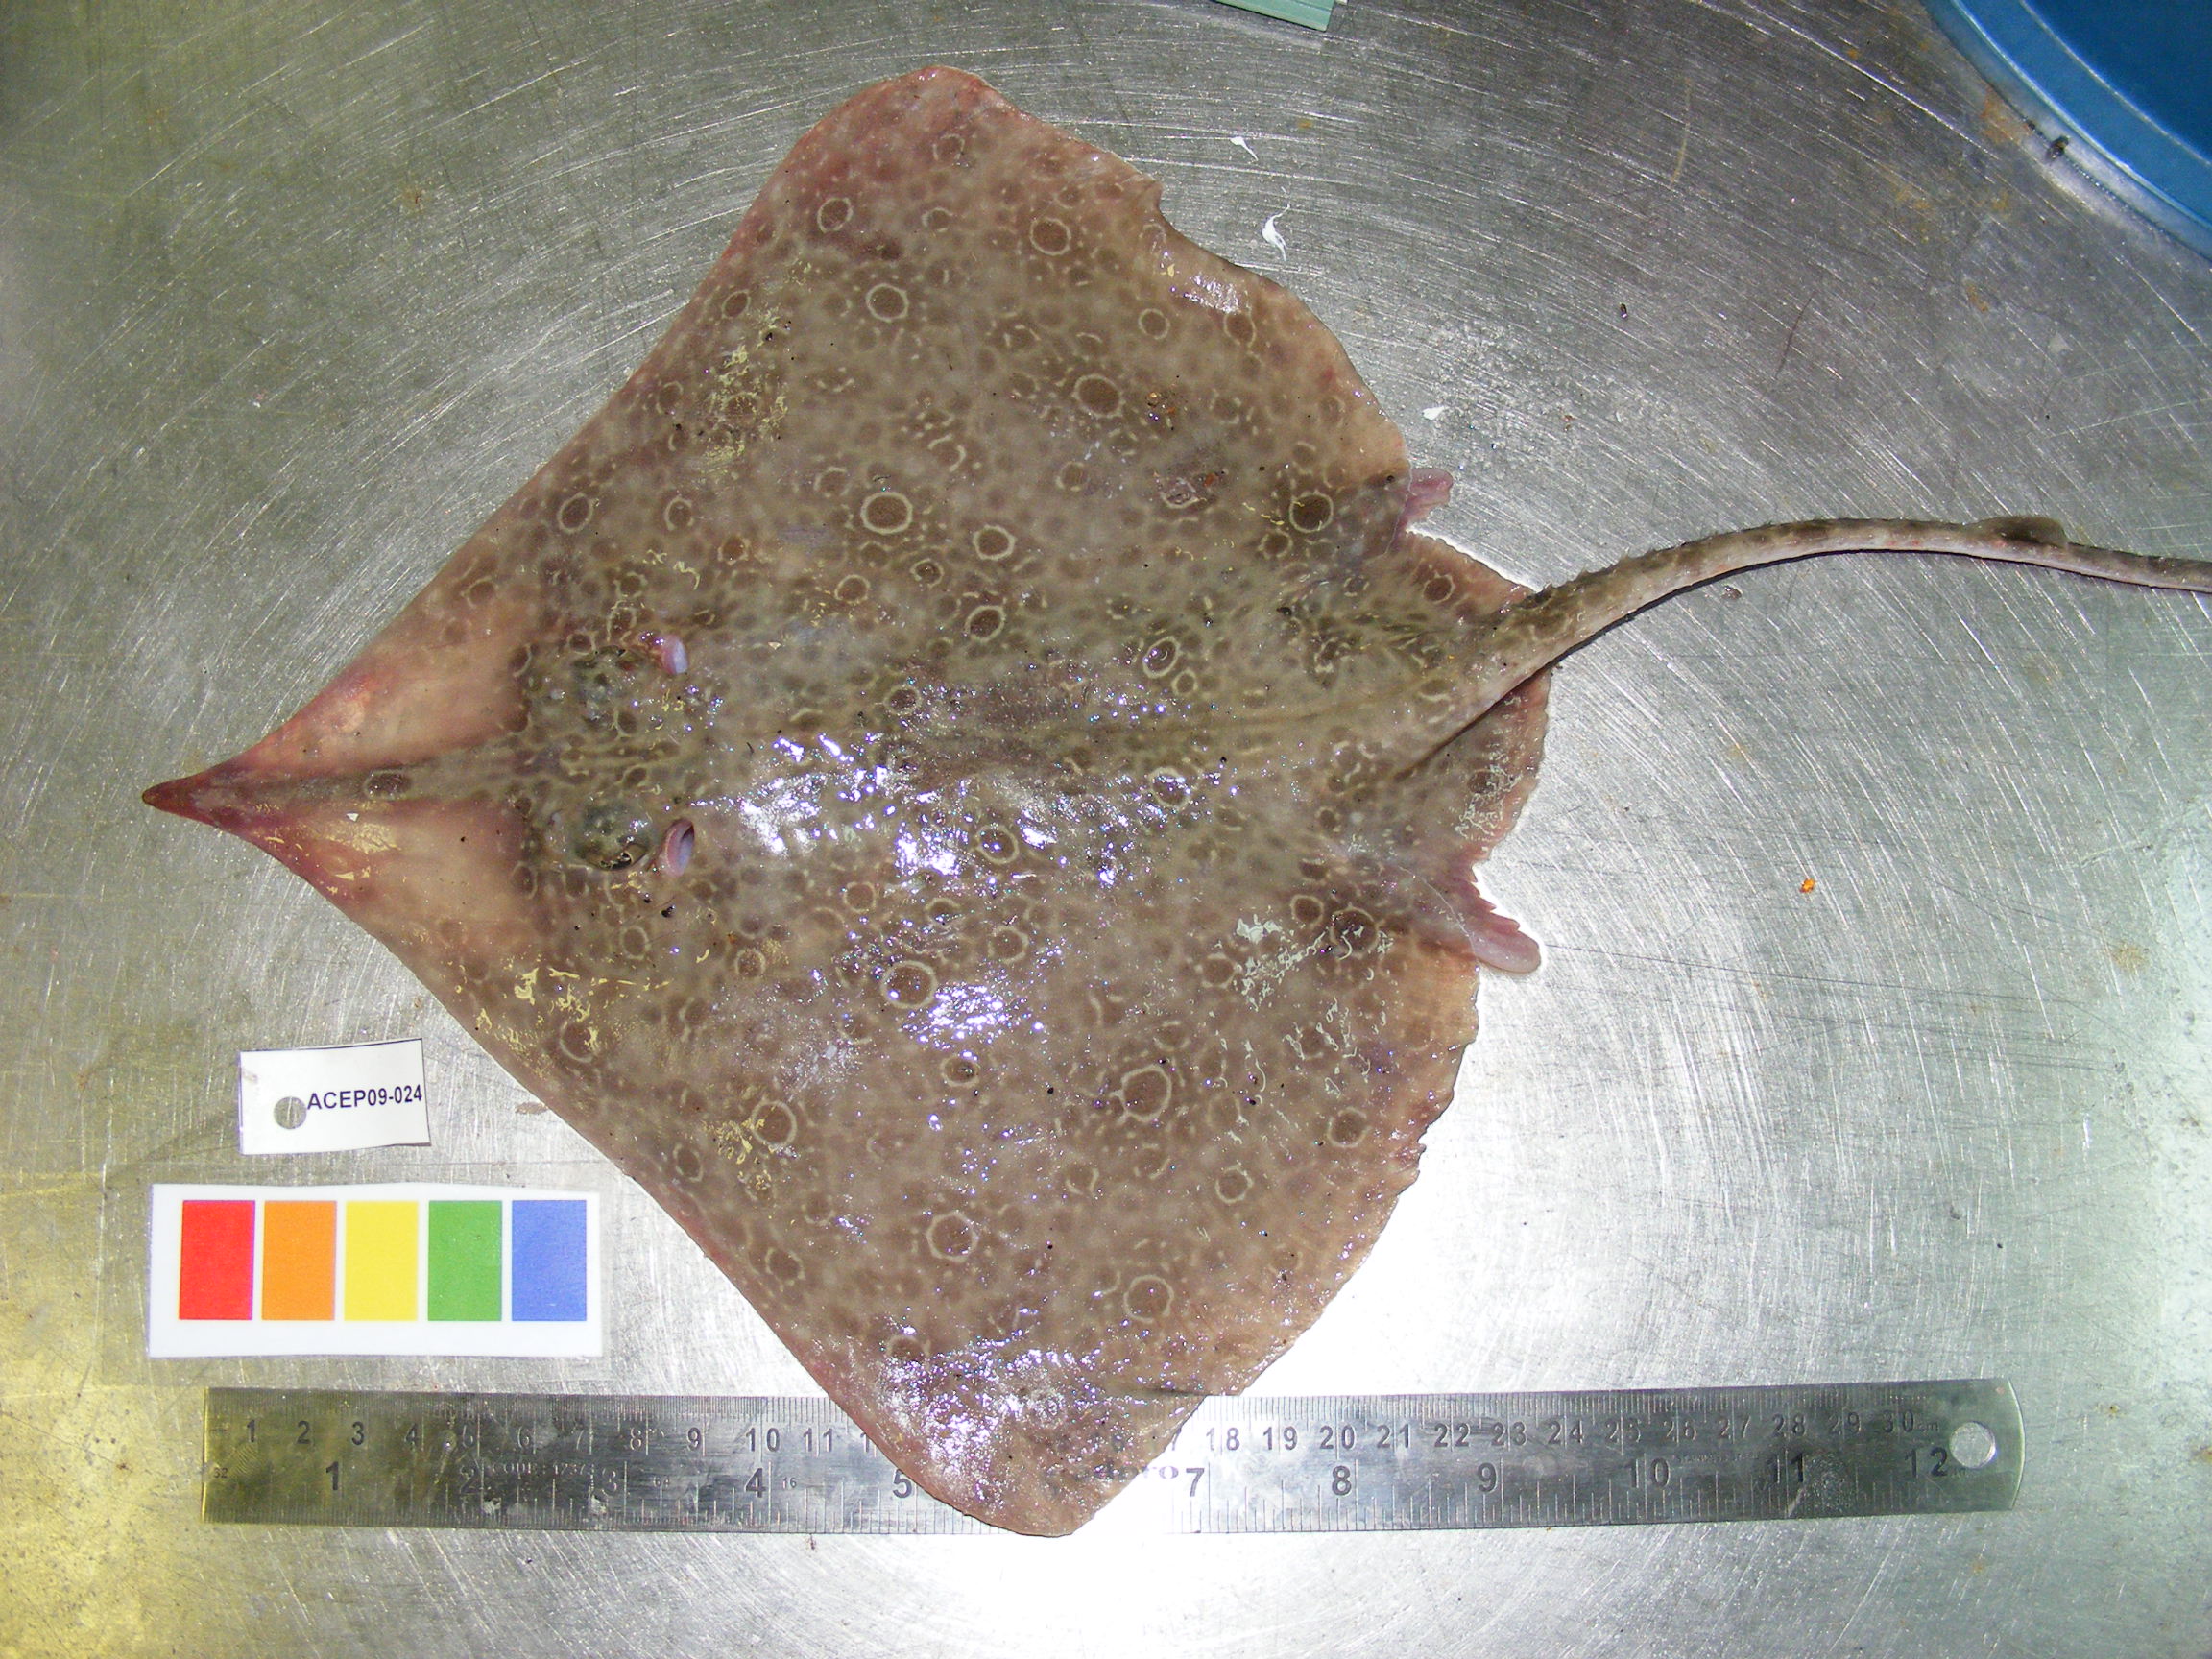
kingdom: Animalia
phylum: Chordata
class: Elasmobranchii
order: Rajiformes
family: Rajidae
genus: Okamejei
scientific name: Okamejei heemstrai
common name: East african skate
